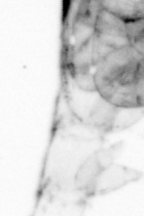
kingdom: Animalia
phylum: Arthropoda
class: Copepoda
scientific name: Copepoda
